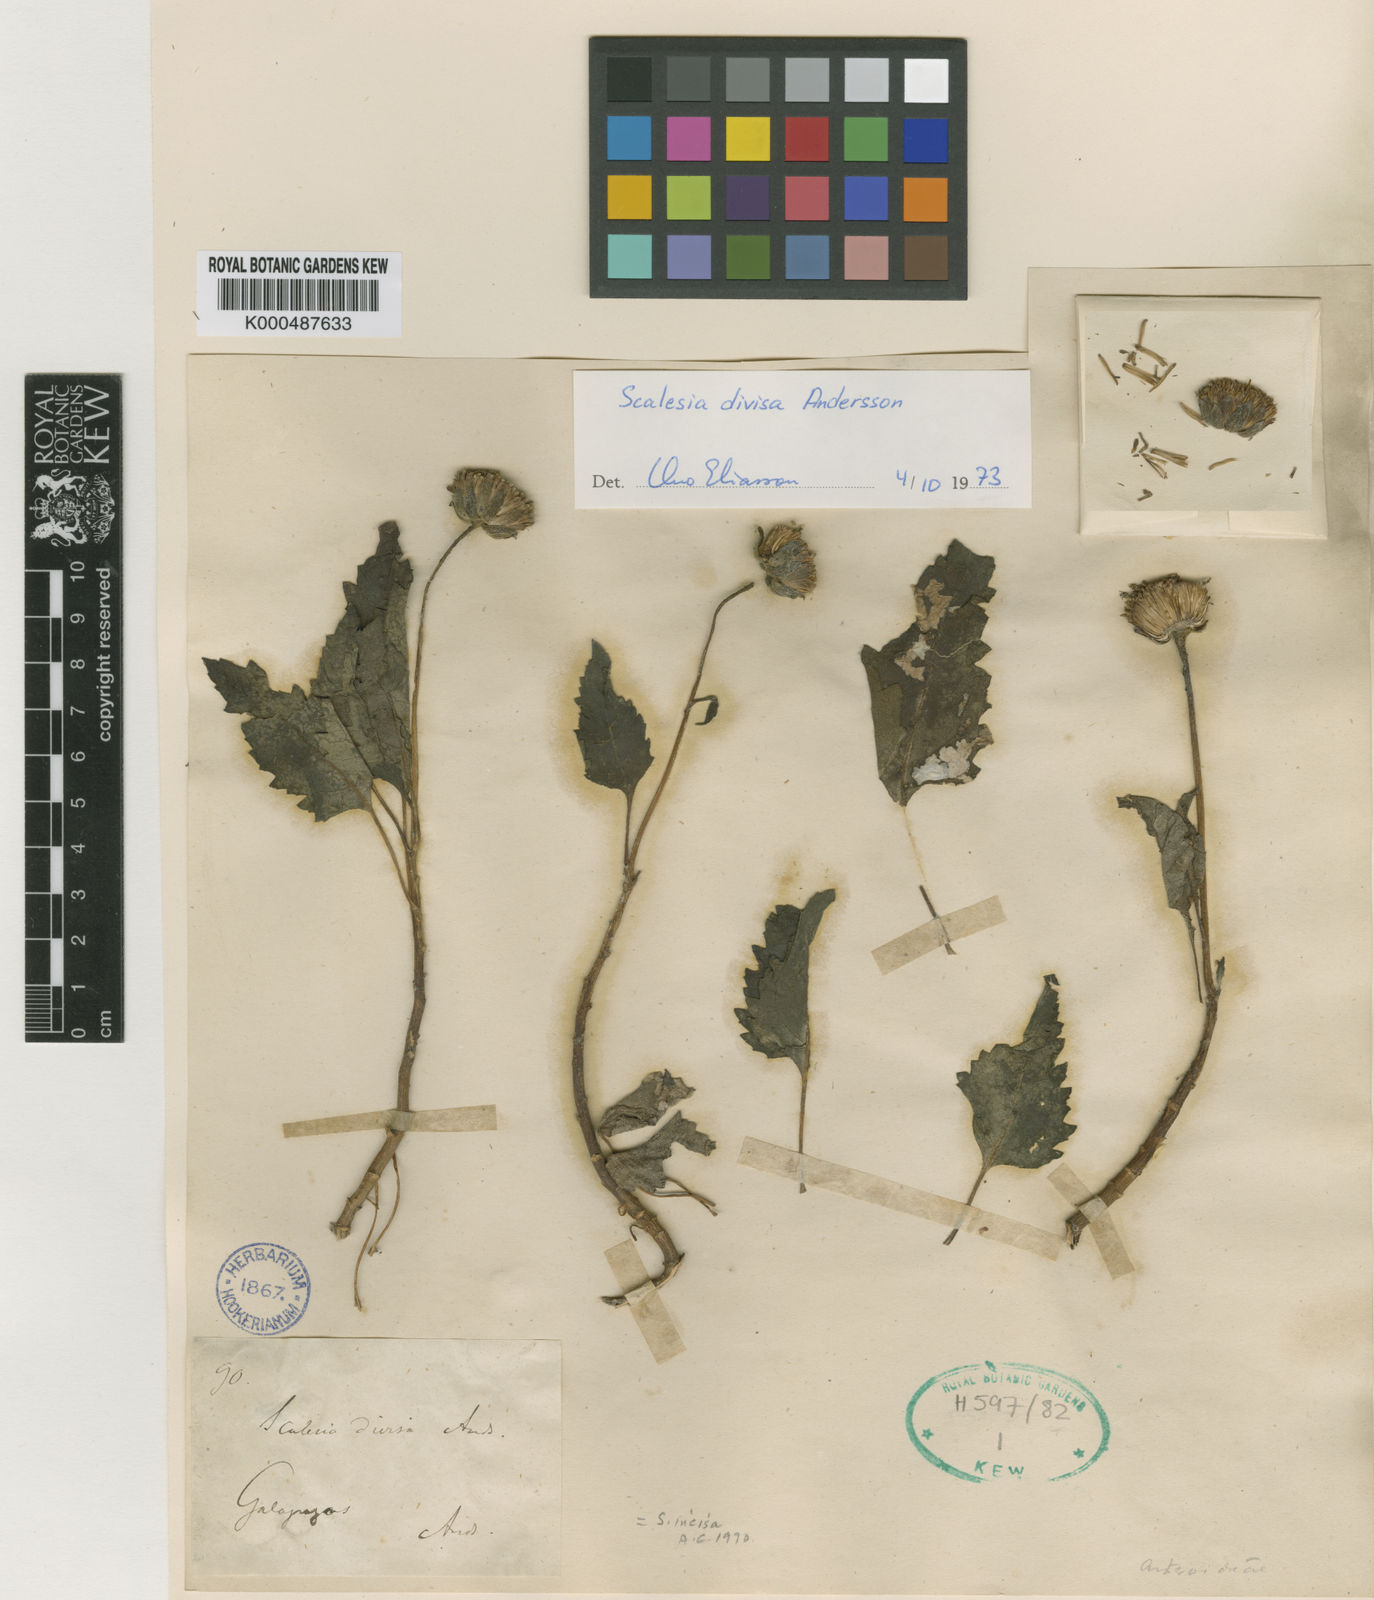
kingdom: Plantae
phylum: Tracheophyta
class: Magnoliopsida
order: Asterales
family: Asteraceae
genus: Scalesia
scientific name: Scalesia divisa
